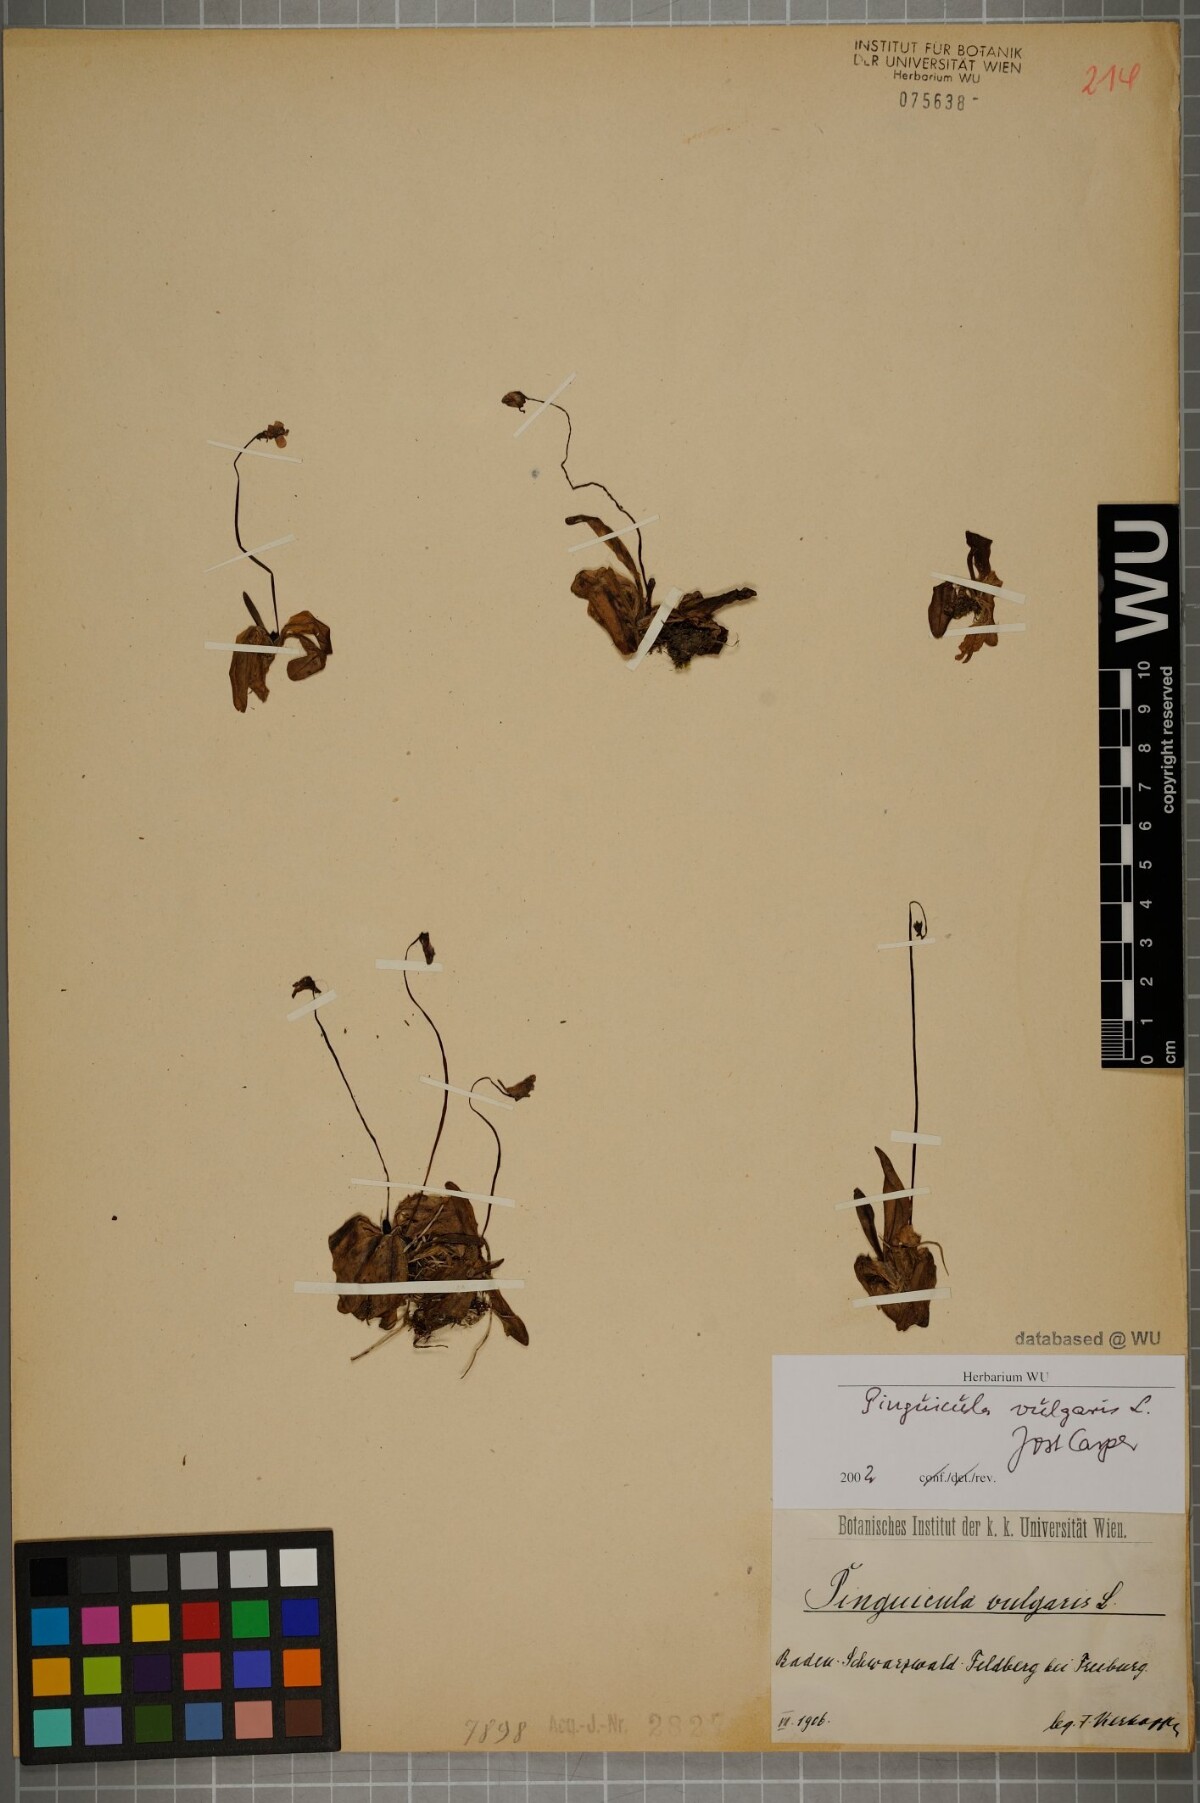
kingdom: Plantae
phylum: Tracheophyta
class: Magnoliopsida
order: Lamiales
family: Lentibulariaceae
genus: Pinguicula
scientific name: Pinguicula vulgaris
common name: Common butterwort
